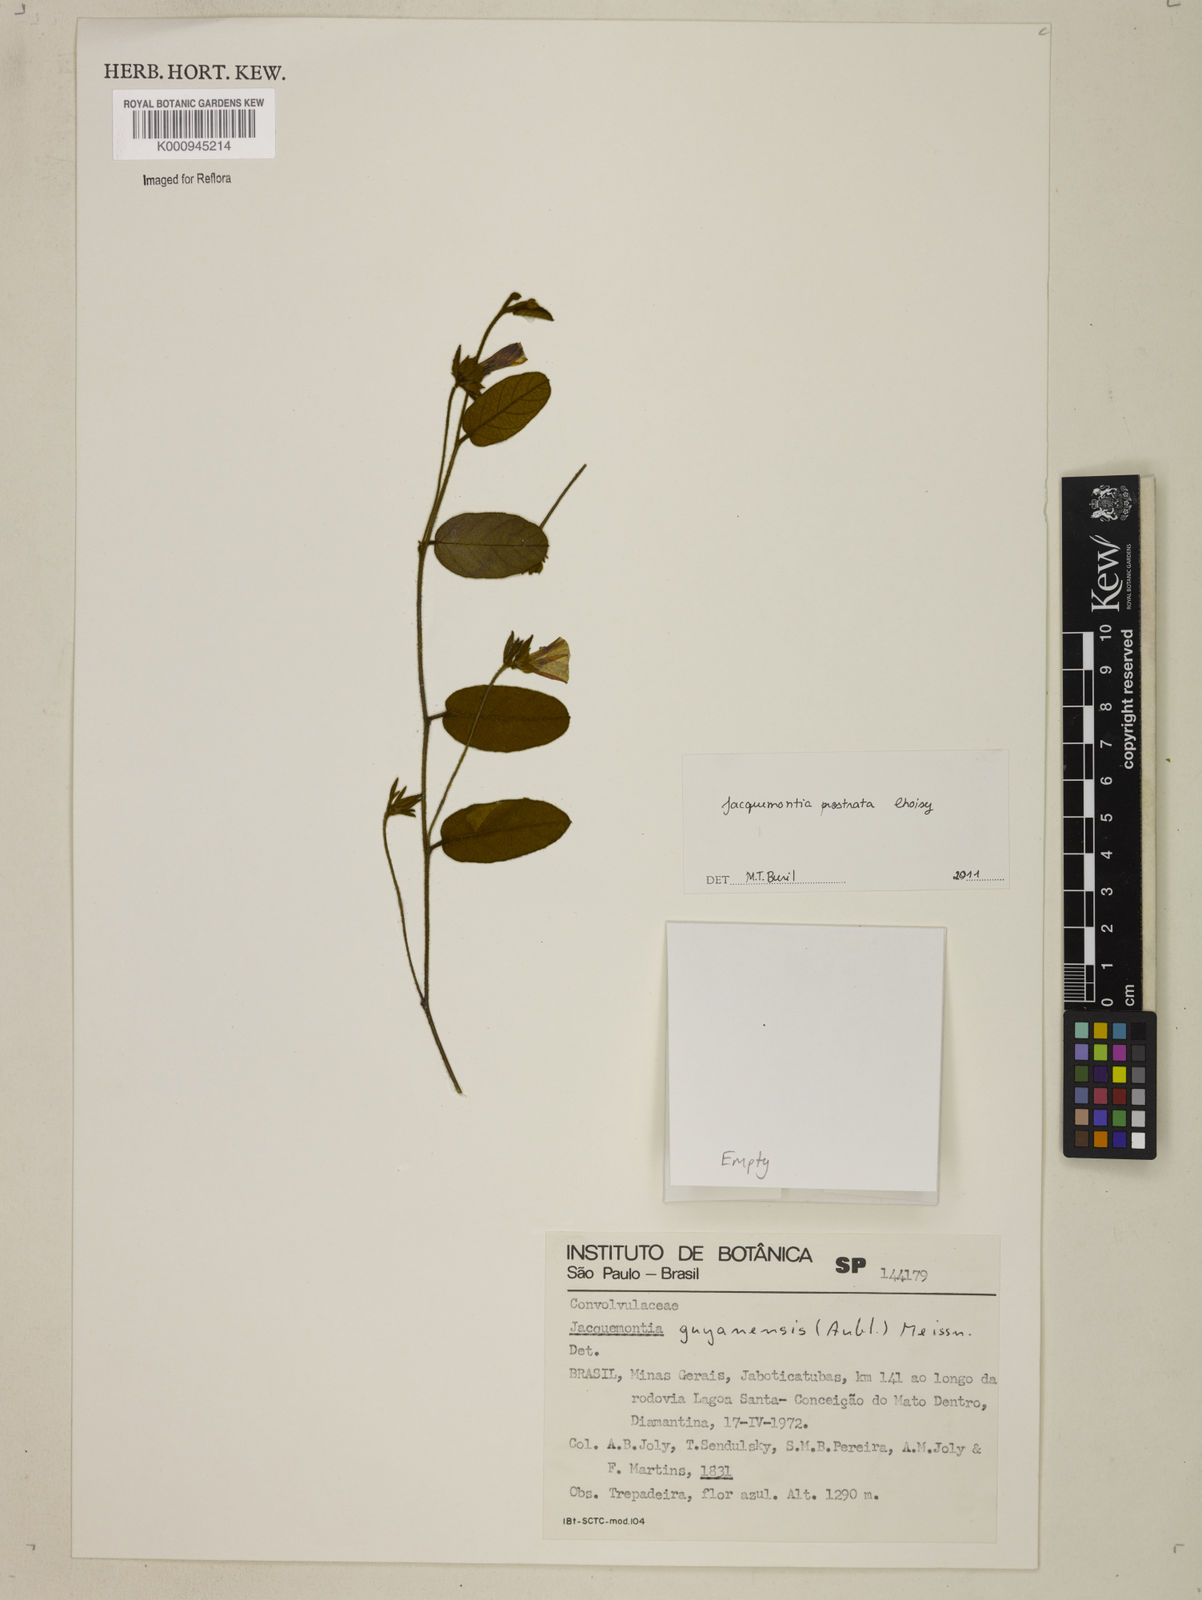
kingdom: Plantae
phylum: Tracheophyta
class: Magnoliopsida
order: Solanales
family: Convolvulaceae
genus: Jacquemontia
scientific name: Jacquemontia prostrata
